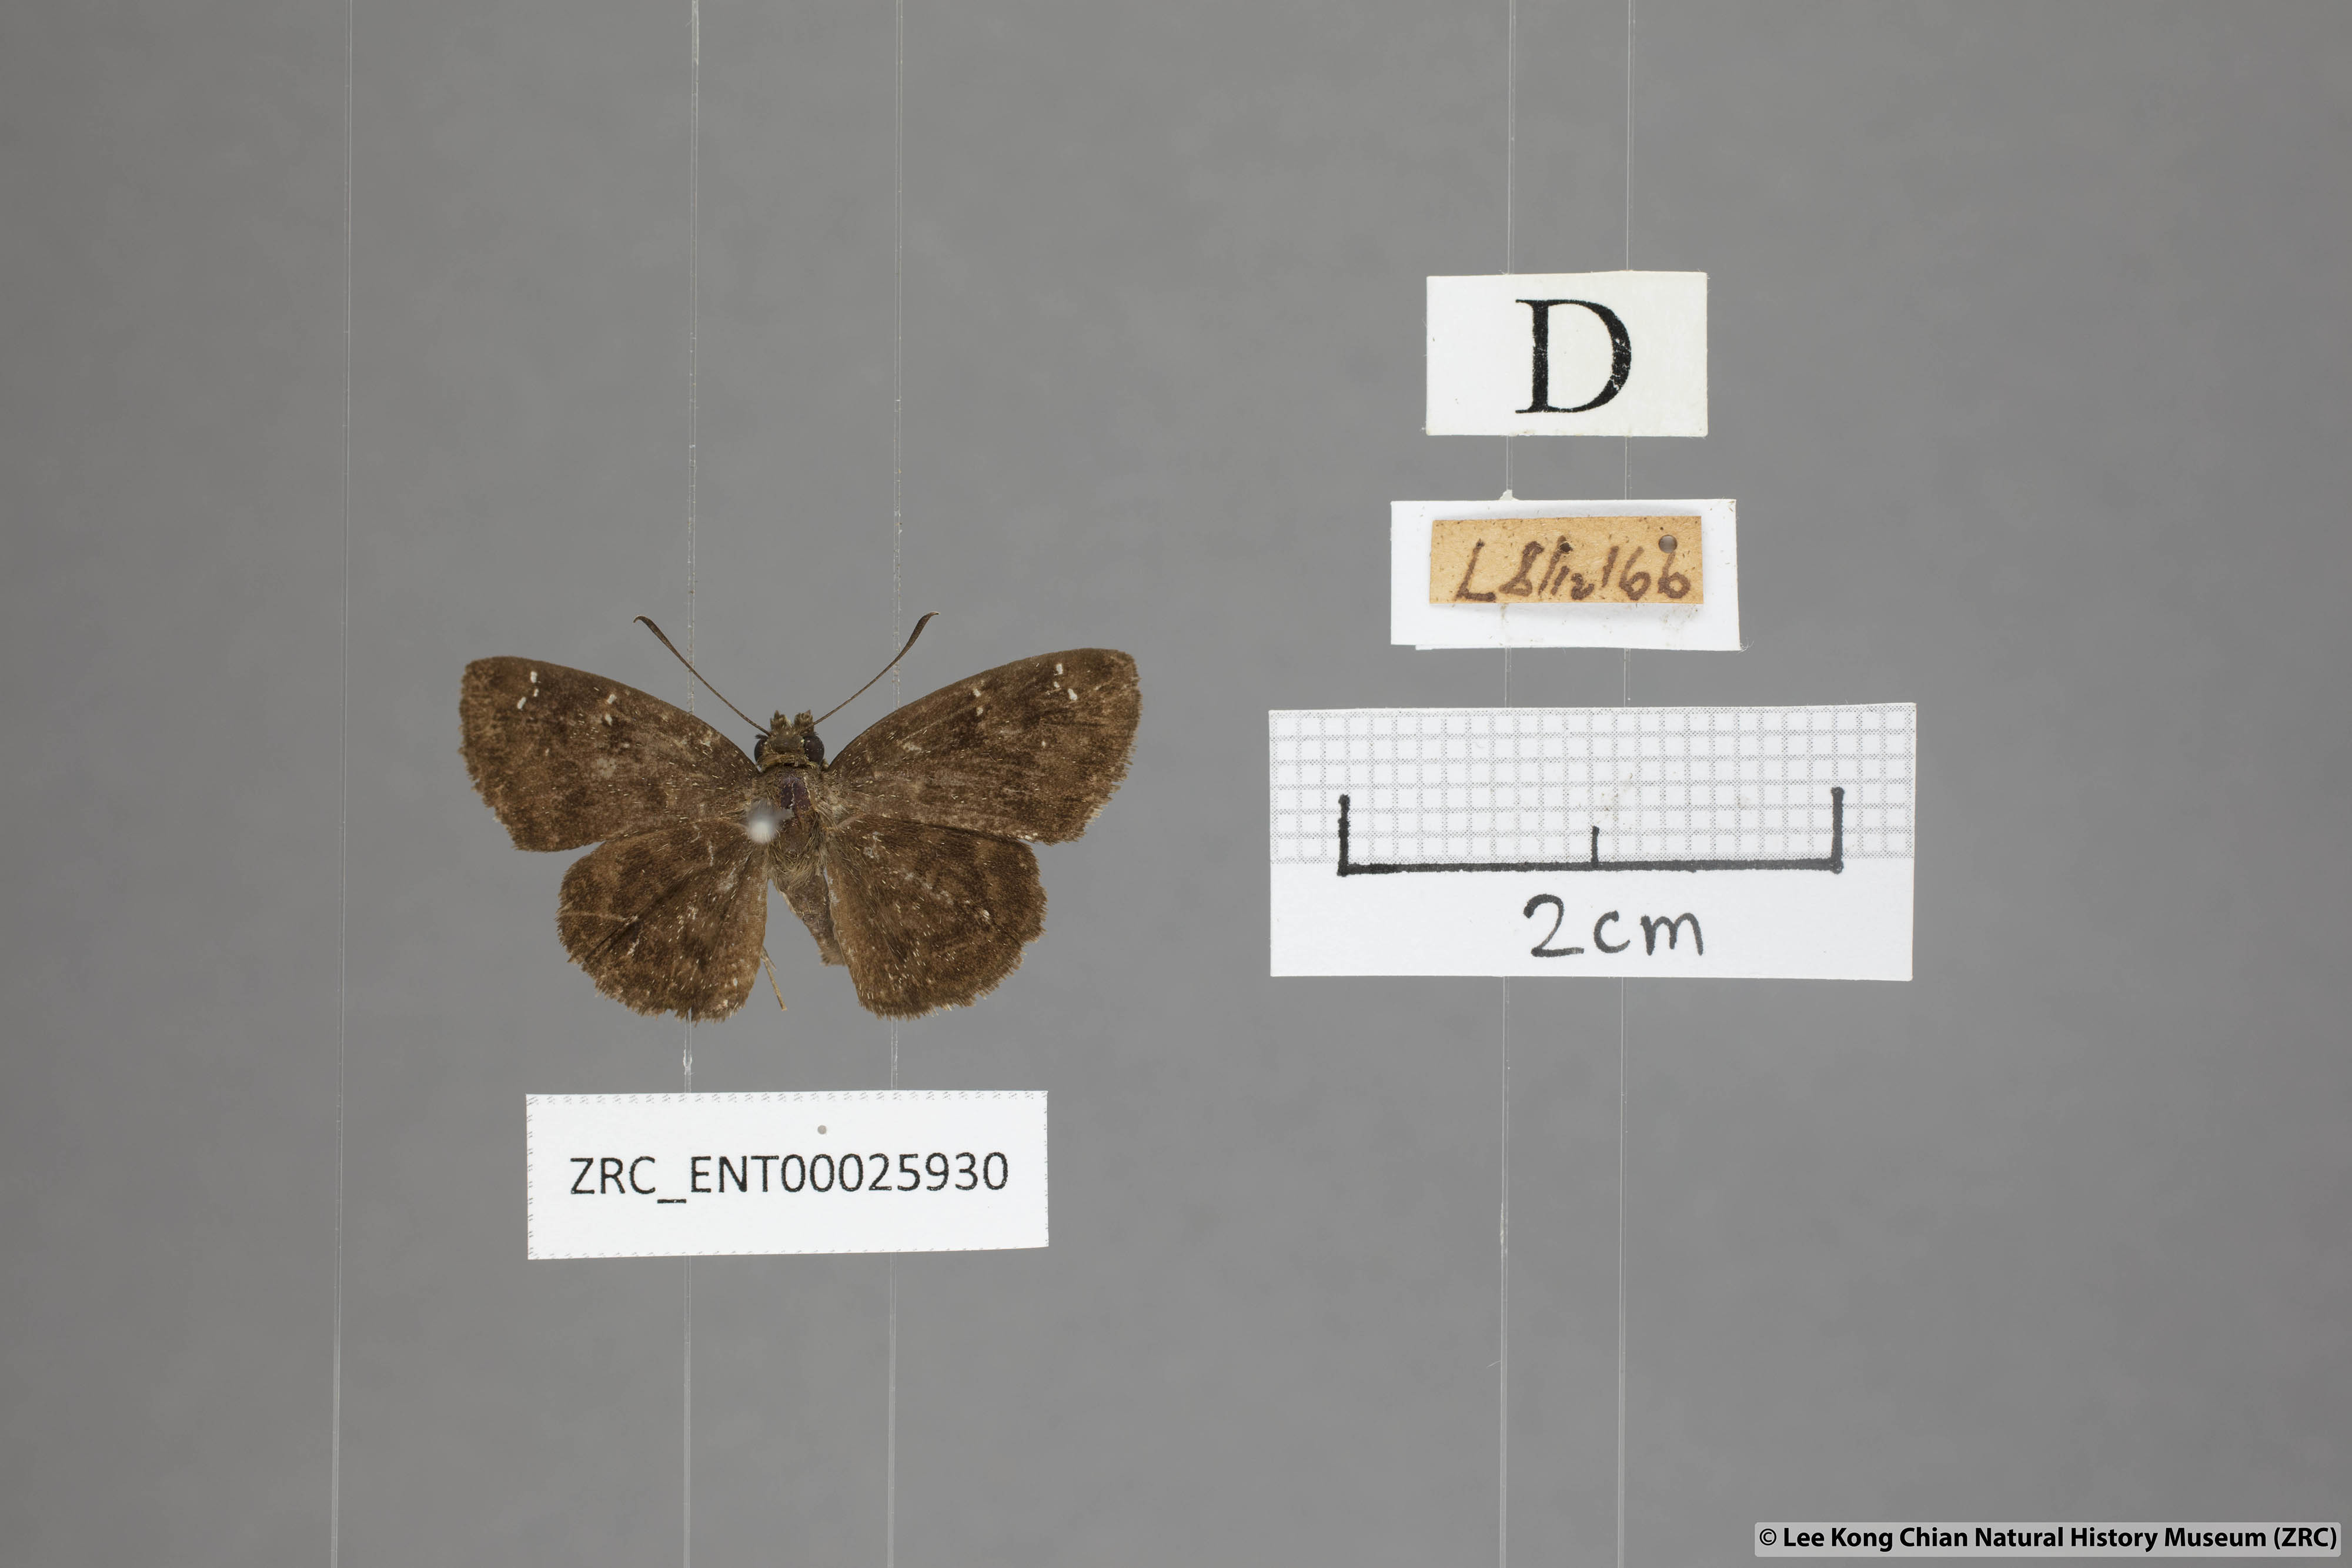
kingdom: Animalia
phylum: Arthropoda
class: Insecta
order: Lepidoptera
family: Hesperiidae
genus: Sarangesa
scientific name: Sarangesa dasahara
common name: Common small flat
